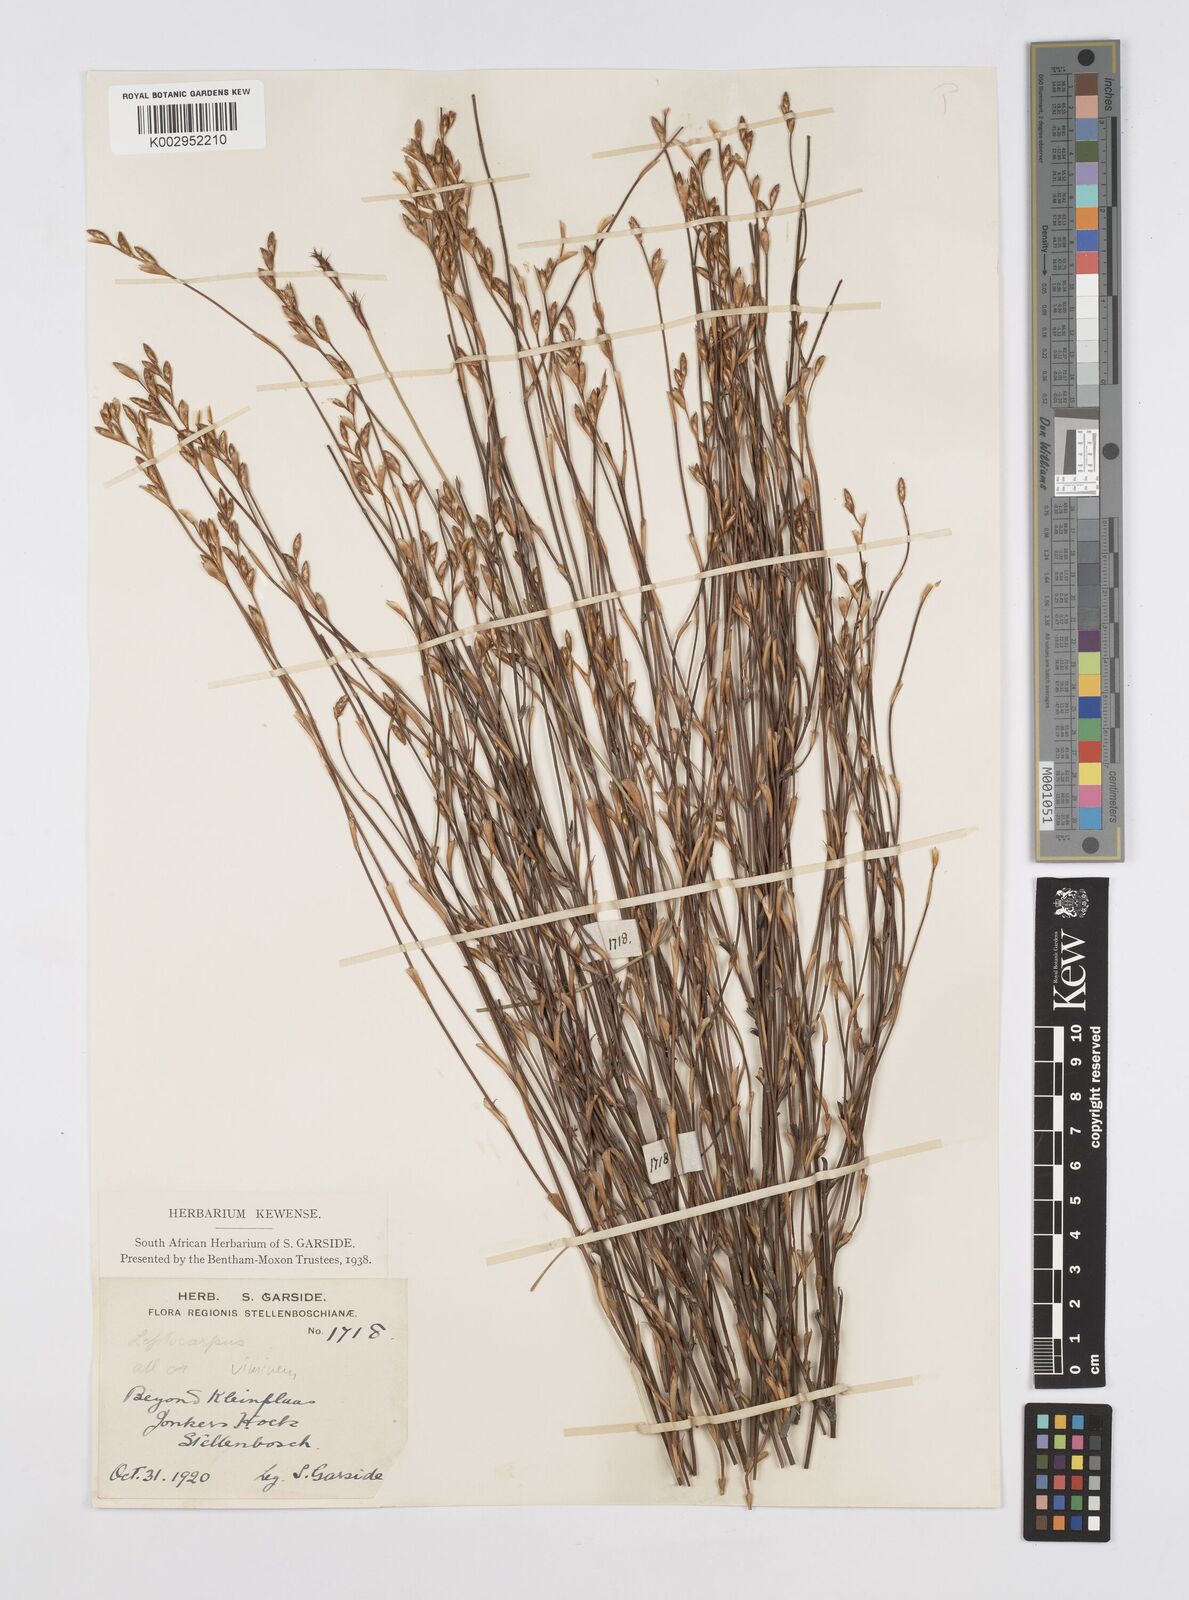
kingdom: Plantae
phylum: Tracheophyta
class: Liliopsida
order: Poales
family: Restionaceae
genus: Restio
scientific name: Restio vimineus
